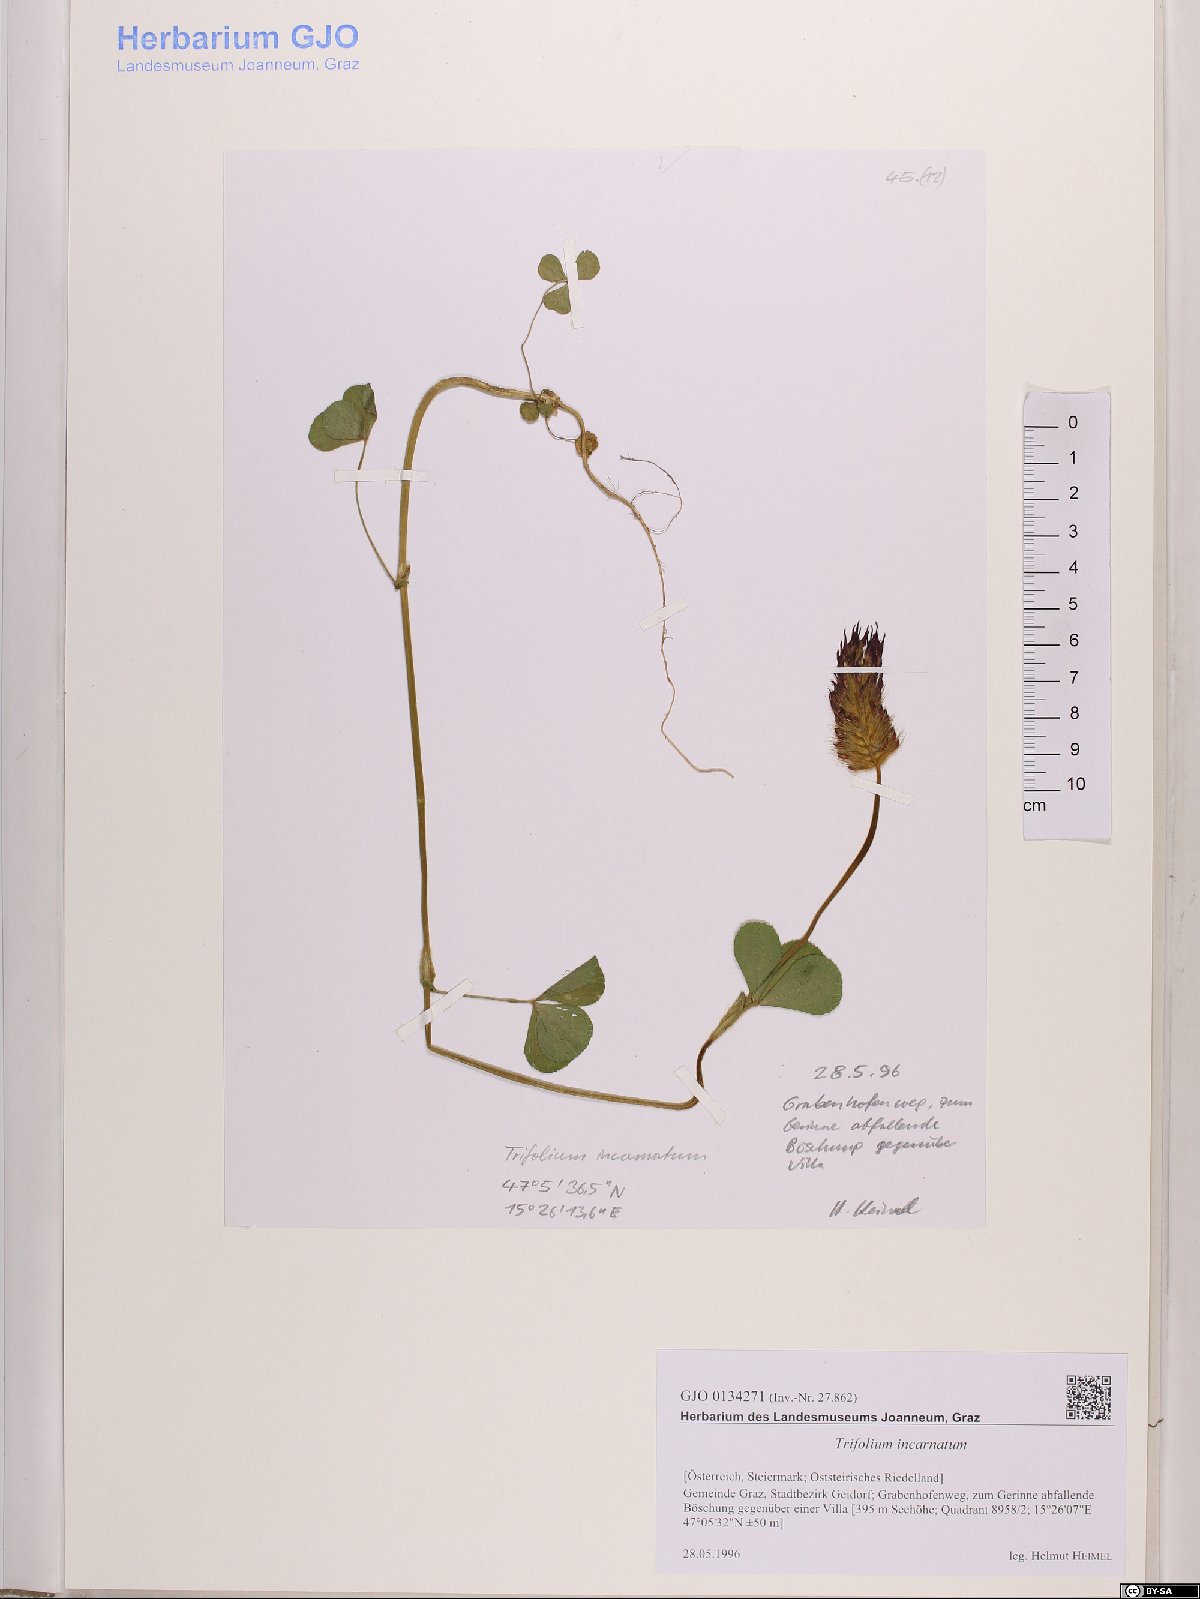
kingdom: Plantae
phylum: Tracheophyta
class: Magnoliopsida
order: Fabales
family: Fabaceae
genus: Trifolium
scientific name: Trifolium incarnatum
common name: Crimson clover
